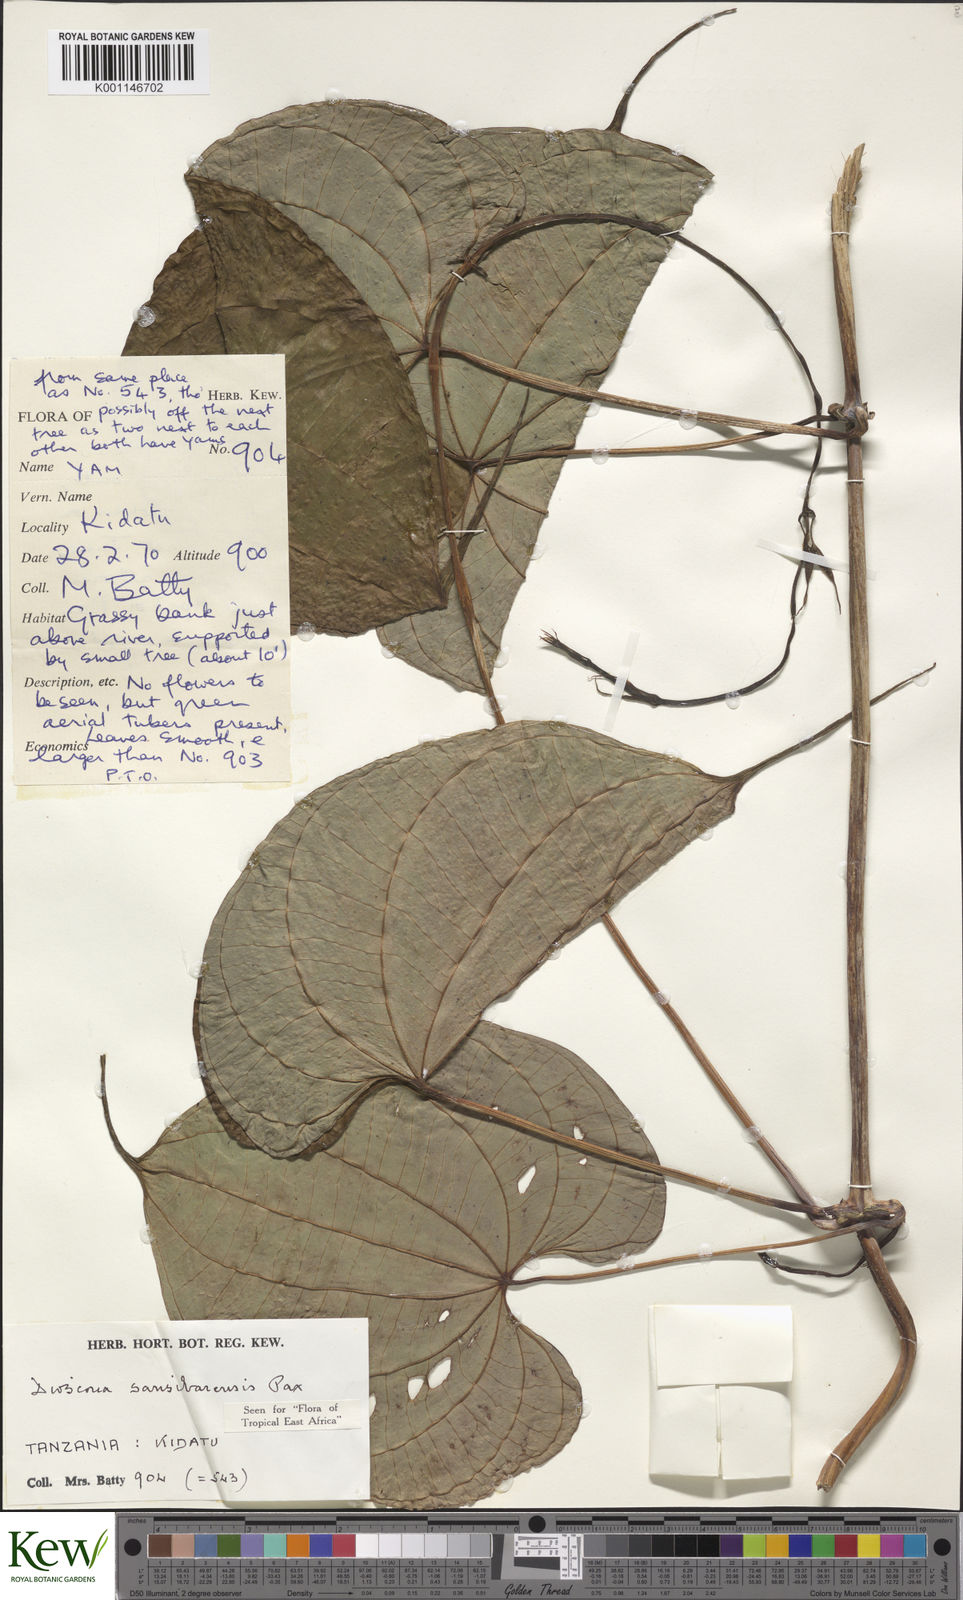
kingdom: Plantae
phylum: Tracheophyta
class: Liliopsida
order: Dioscoreales
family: Dioscoreaceae
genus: Dioscorea
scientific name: Dioscorea sansibarensis
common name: Zanzibar yam
